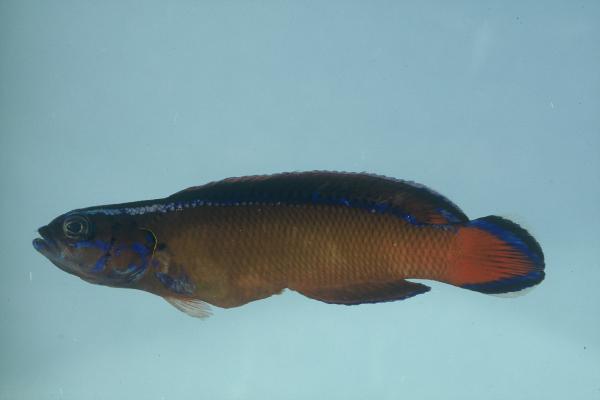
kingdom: Animalia
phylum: Chordata
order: Perciformes
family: Pseudochromidae
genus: Pseudochromis
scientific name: Pseudochromis dutoiti
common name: Dutoiti
